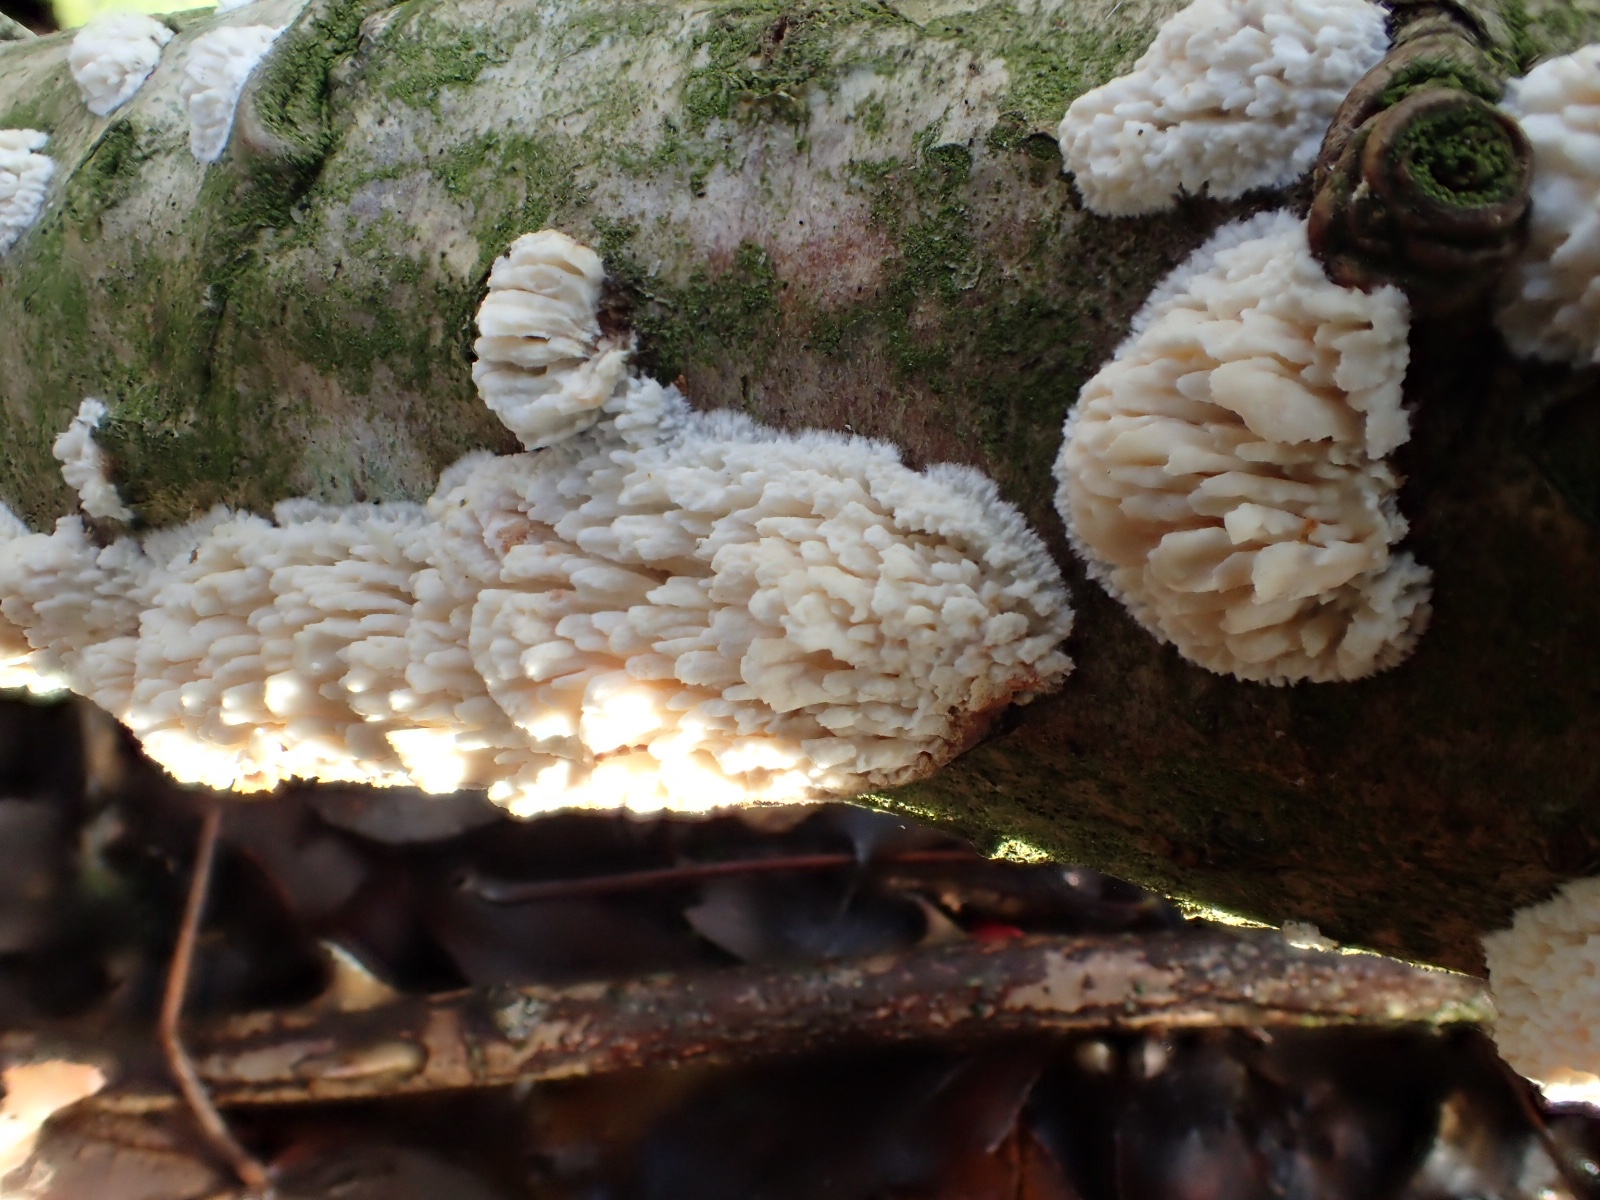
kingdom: Fungi
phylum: Basidiomycota
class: Agaricomycetes
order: Hymenochaetales
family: Schizoporaceae
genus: Xylodon
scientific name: Xylodon radula
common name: grovtandet kalkskind
